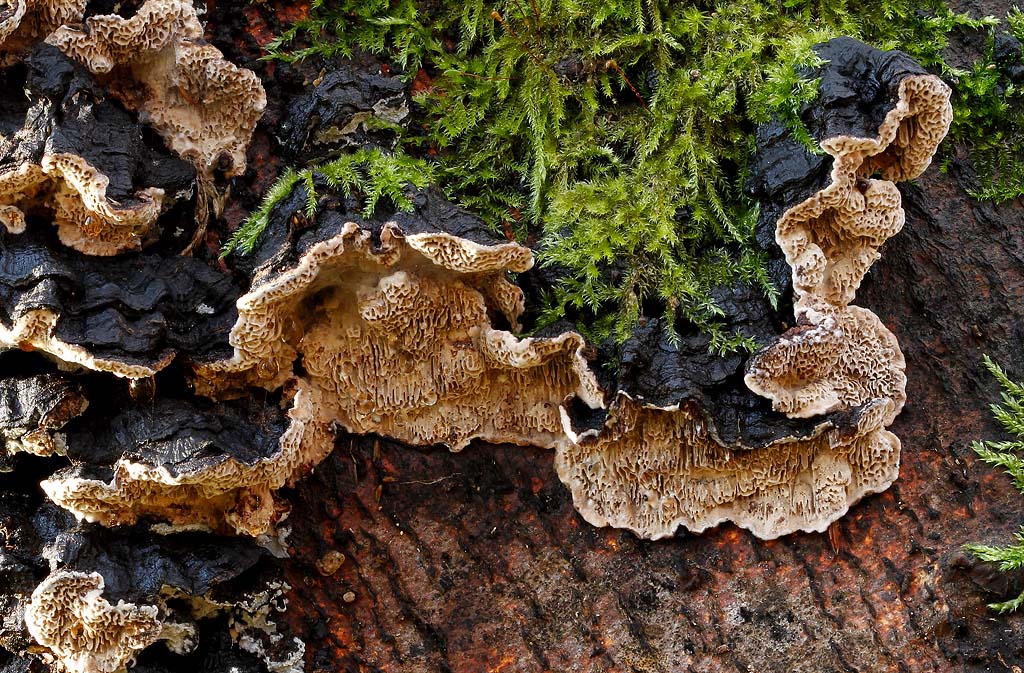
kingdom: Fungi
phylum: Basidiomycota
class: Agaricomycetes
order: Polyporales
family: Polyporaceae
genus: Podofomes
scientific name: Podofomes mollis
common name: blød begporesvamp
